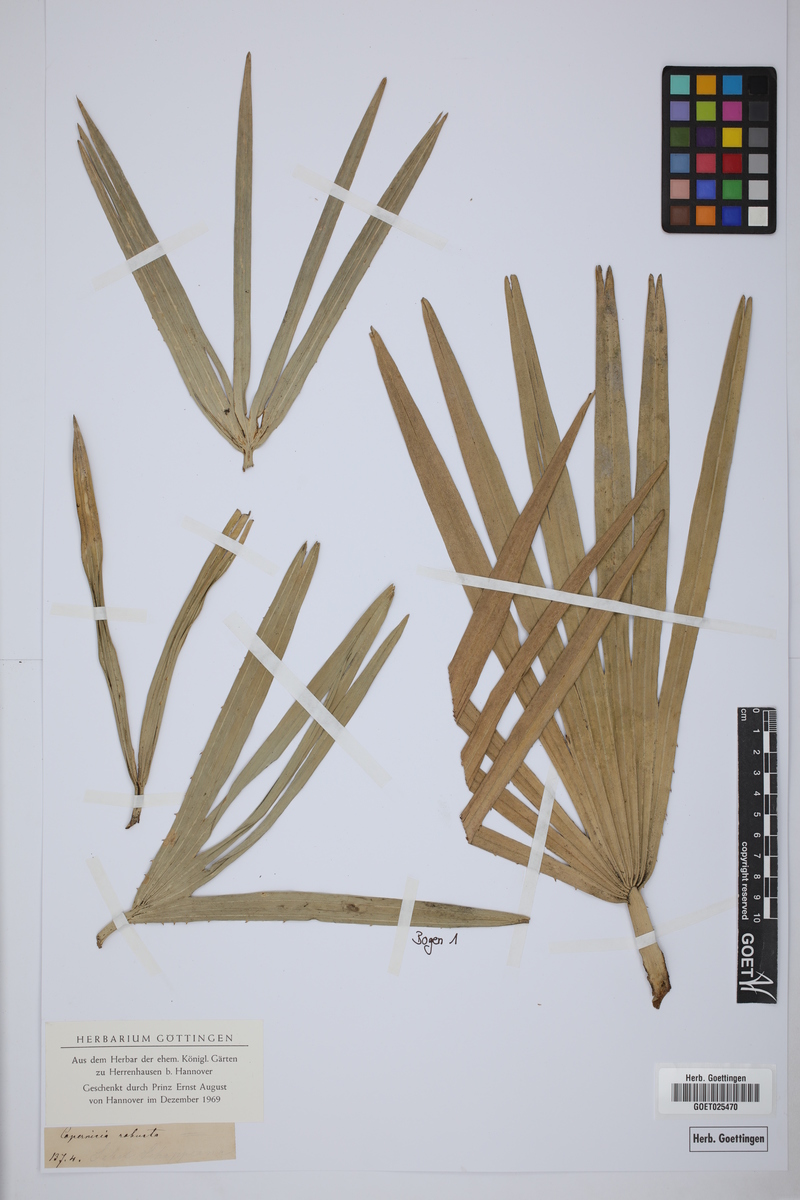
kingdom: Plantae
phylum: Tracheophyta
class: Liliopsida
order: Arecales
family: Arecaceae
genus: Copernicia
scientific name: Copernicia robusta
